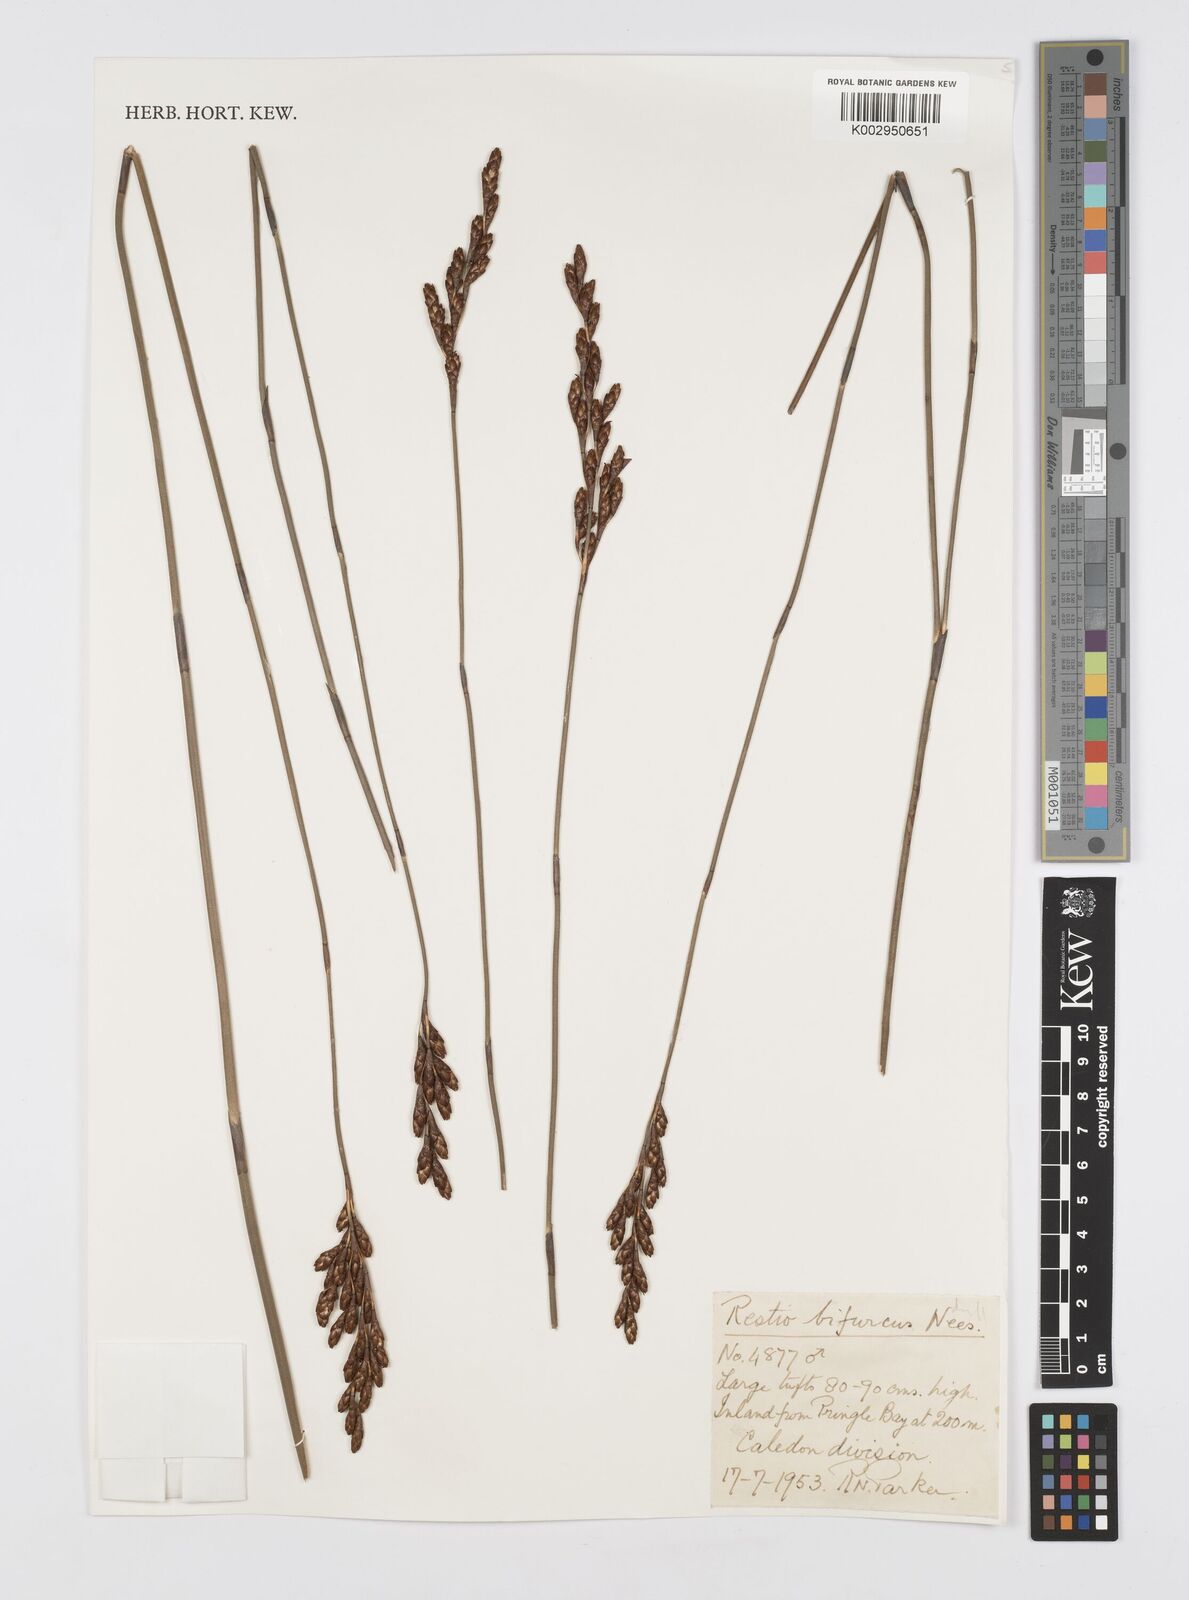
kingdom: Plantae
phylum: Tracheophyta
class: Liliopsida
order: Poales
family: Restionaceae
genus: Restio
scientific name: Restio bifurcus
